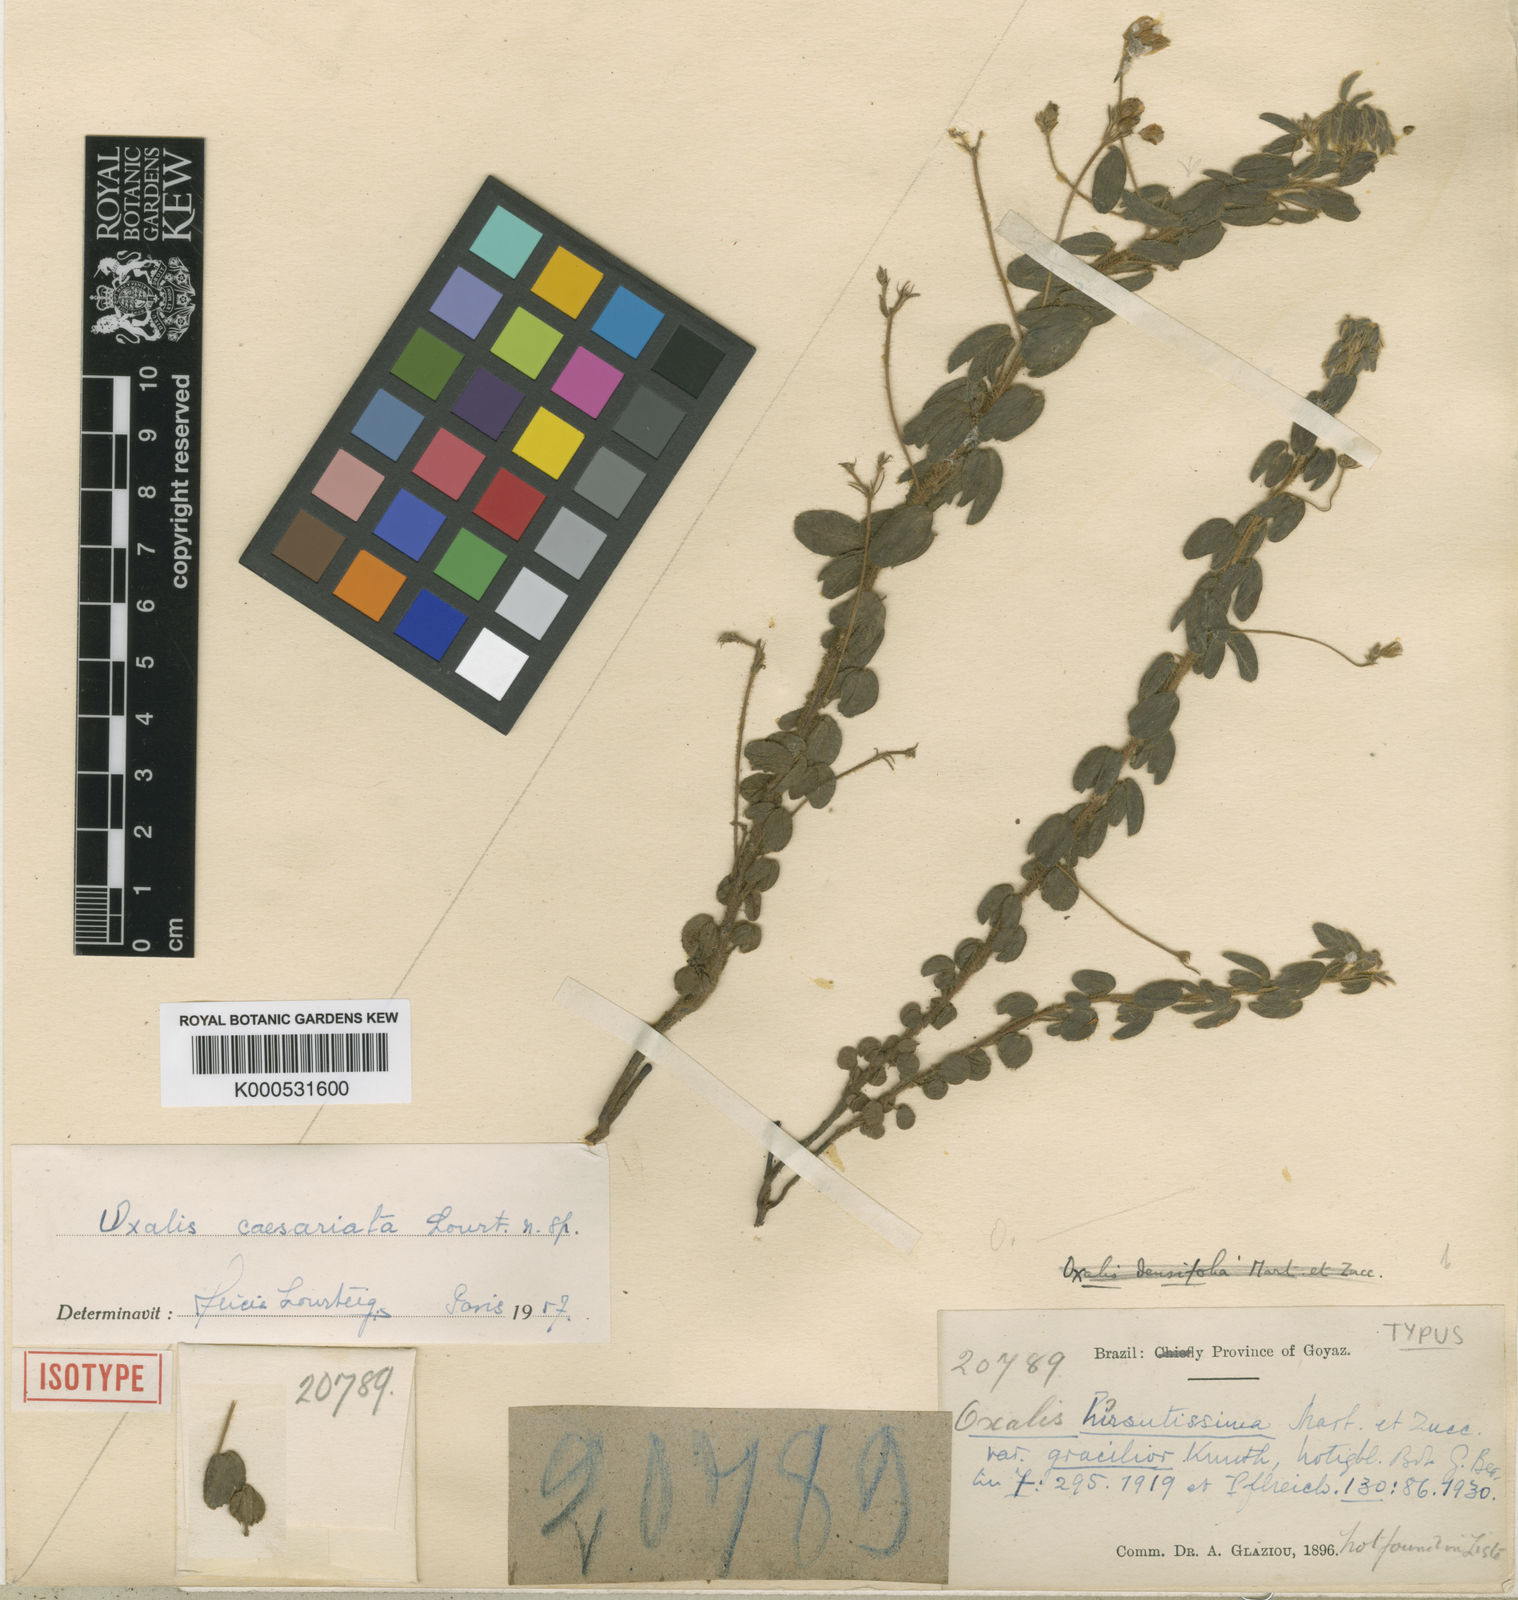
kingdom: Plantae
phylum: Tracheophyta
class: Magnoliopsida
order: Oxalidales
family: Oxalidaceae
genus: Oxalis
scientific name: Oxalis hirsutissima
